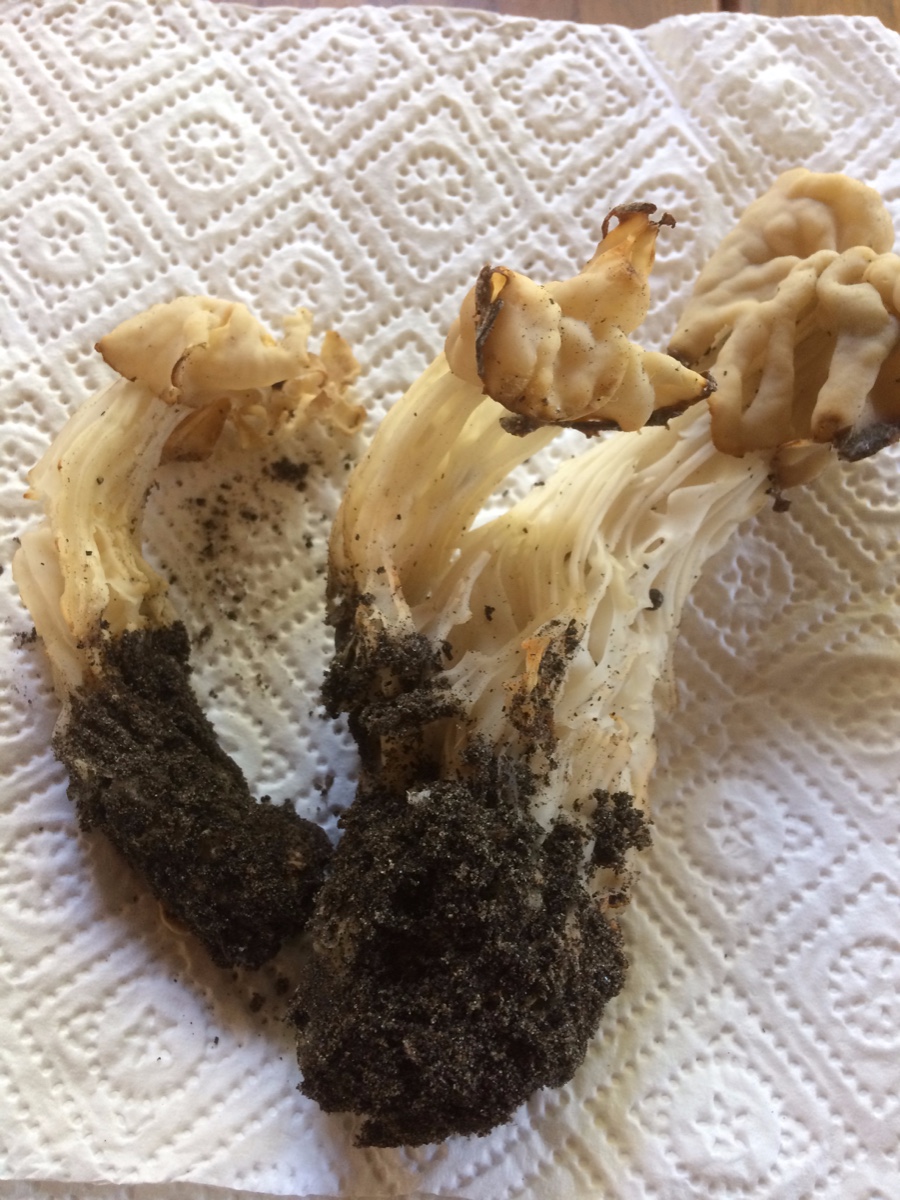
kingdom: Fungi
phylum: Ascomycota
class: Pezizomycetes
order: Pezizales
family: Helvellaceae
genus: Helvella
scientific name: Helvella crispa
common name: kruset foldhat
